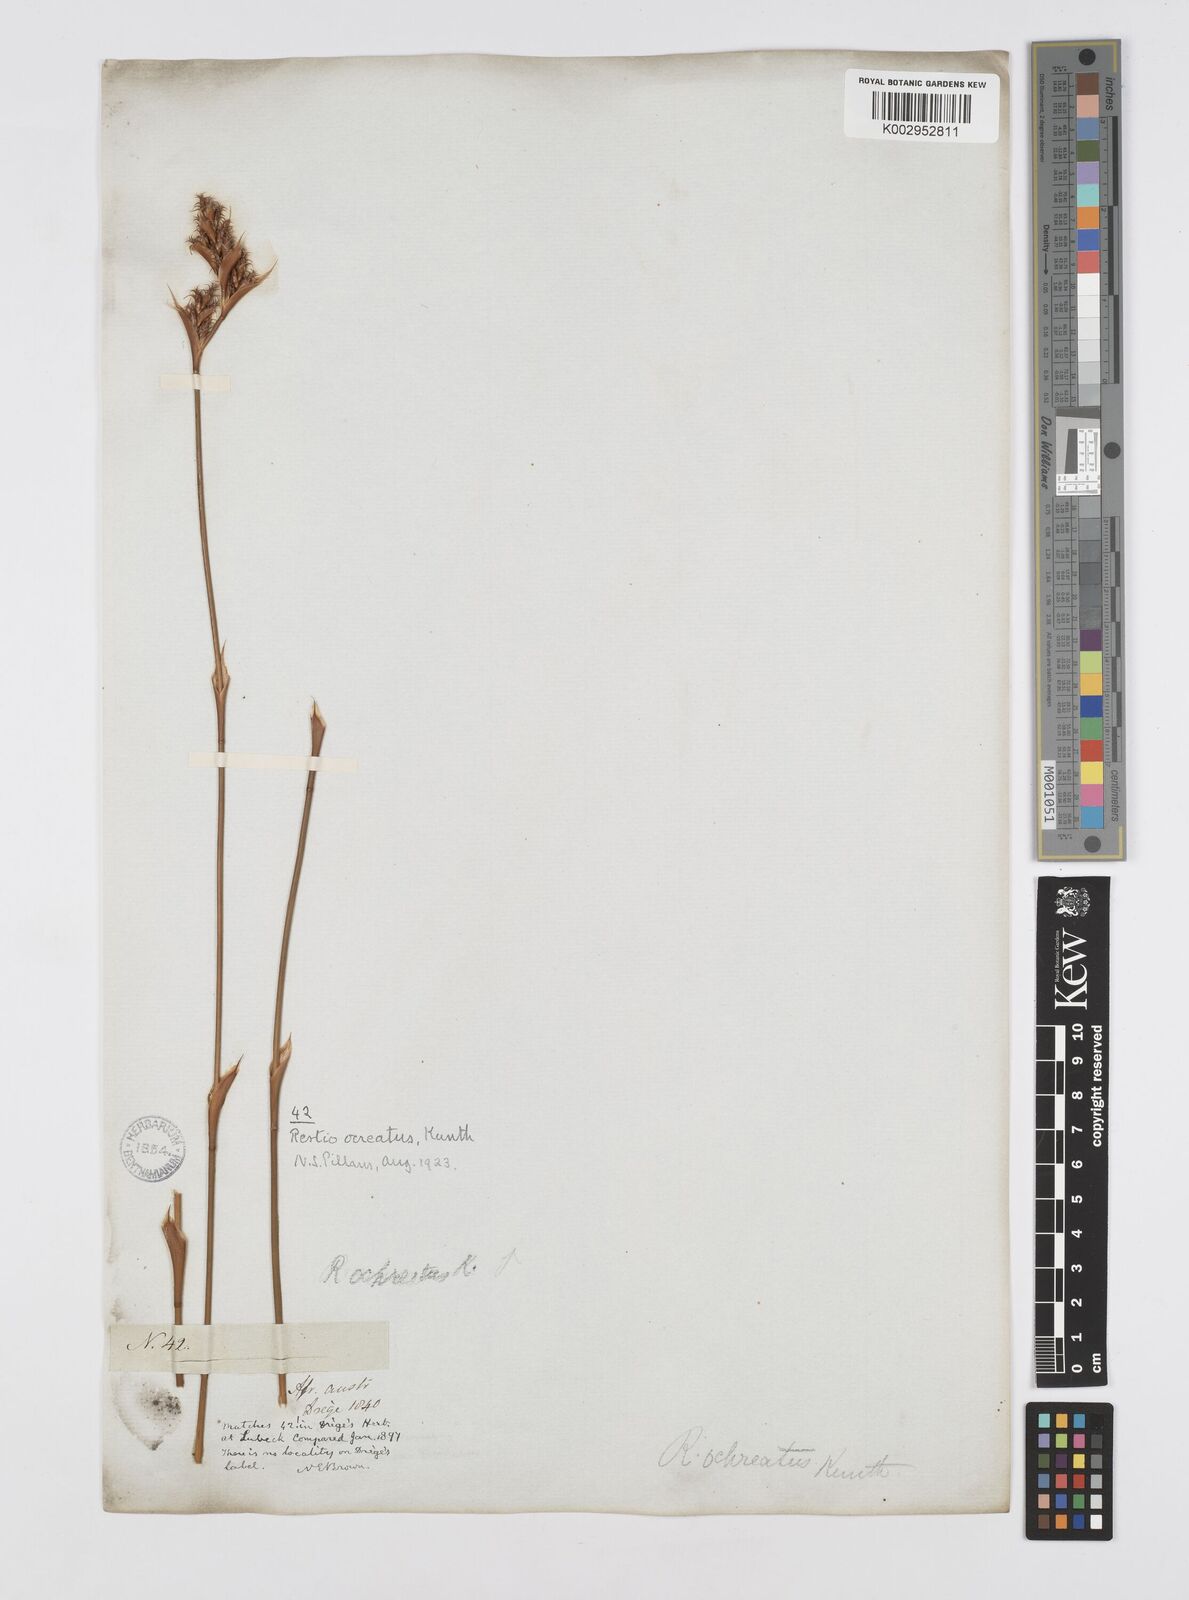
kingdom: Plantae
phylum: Tracheophyta
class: Liliopsida
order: Poales
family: Restionaceae
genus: Restio
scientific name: Restio ocreatus
